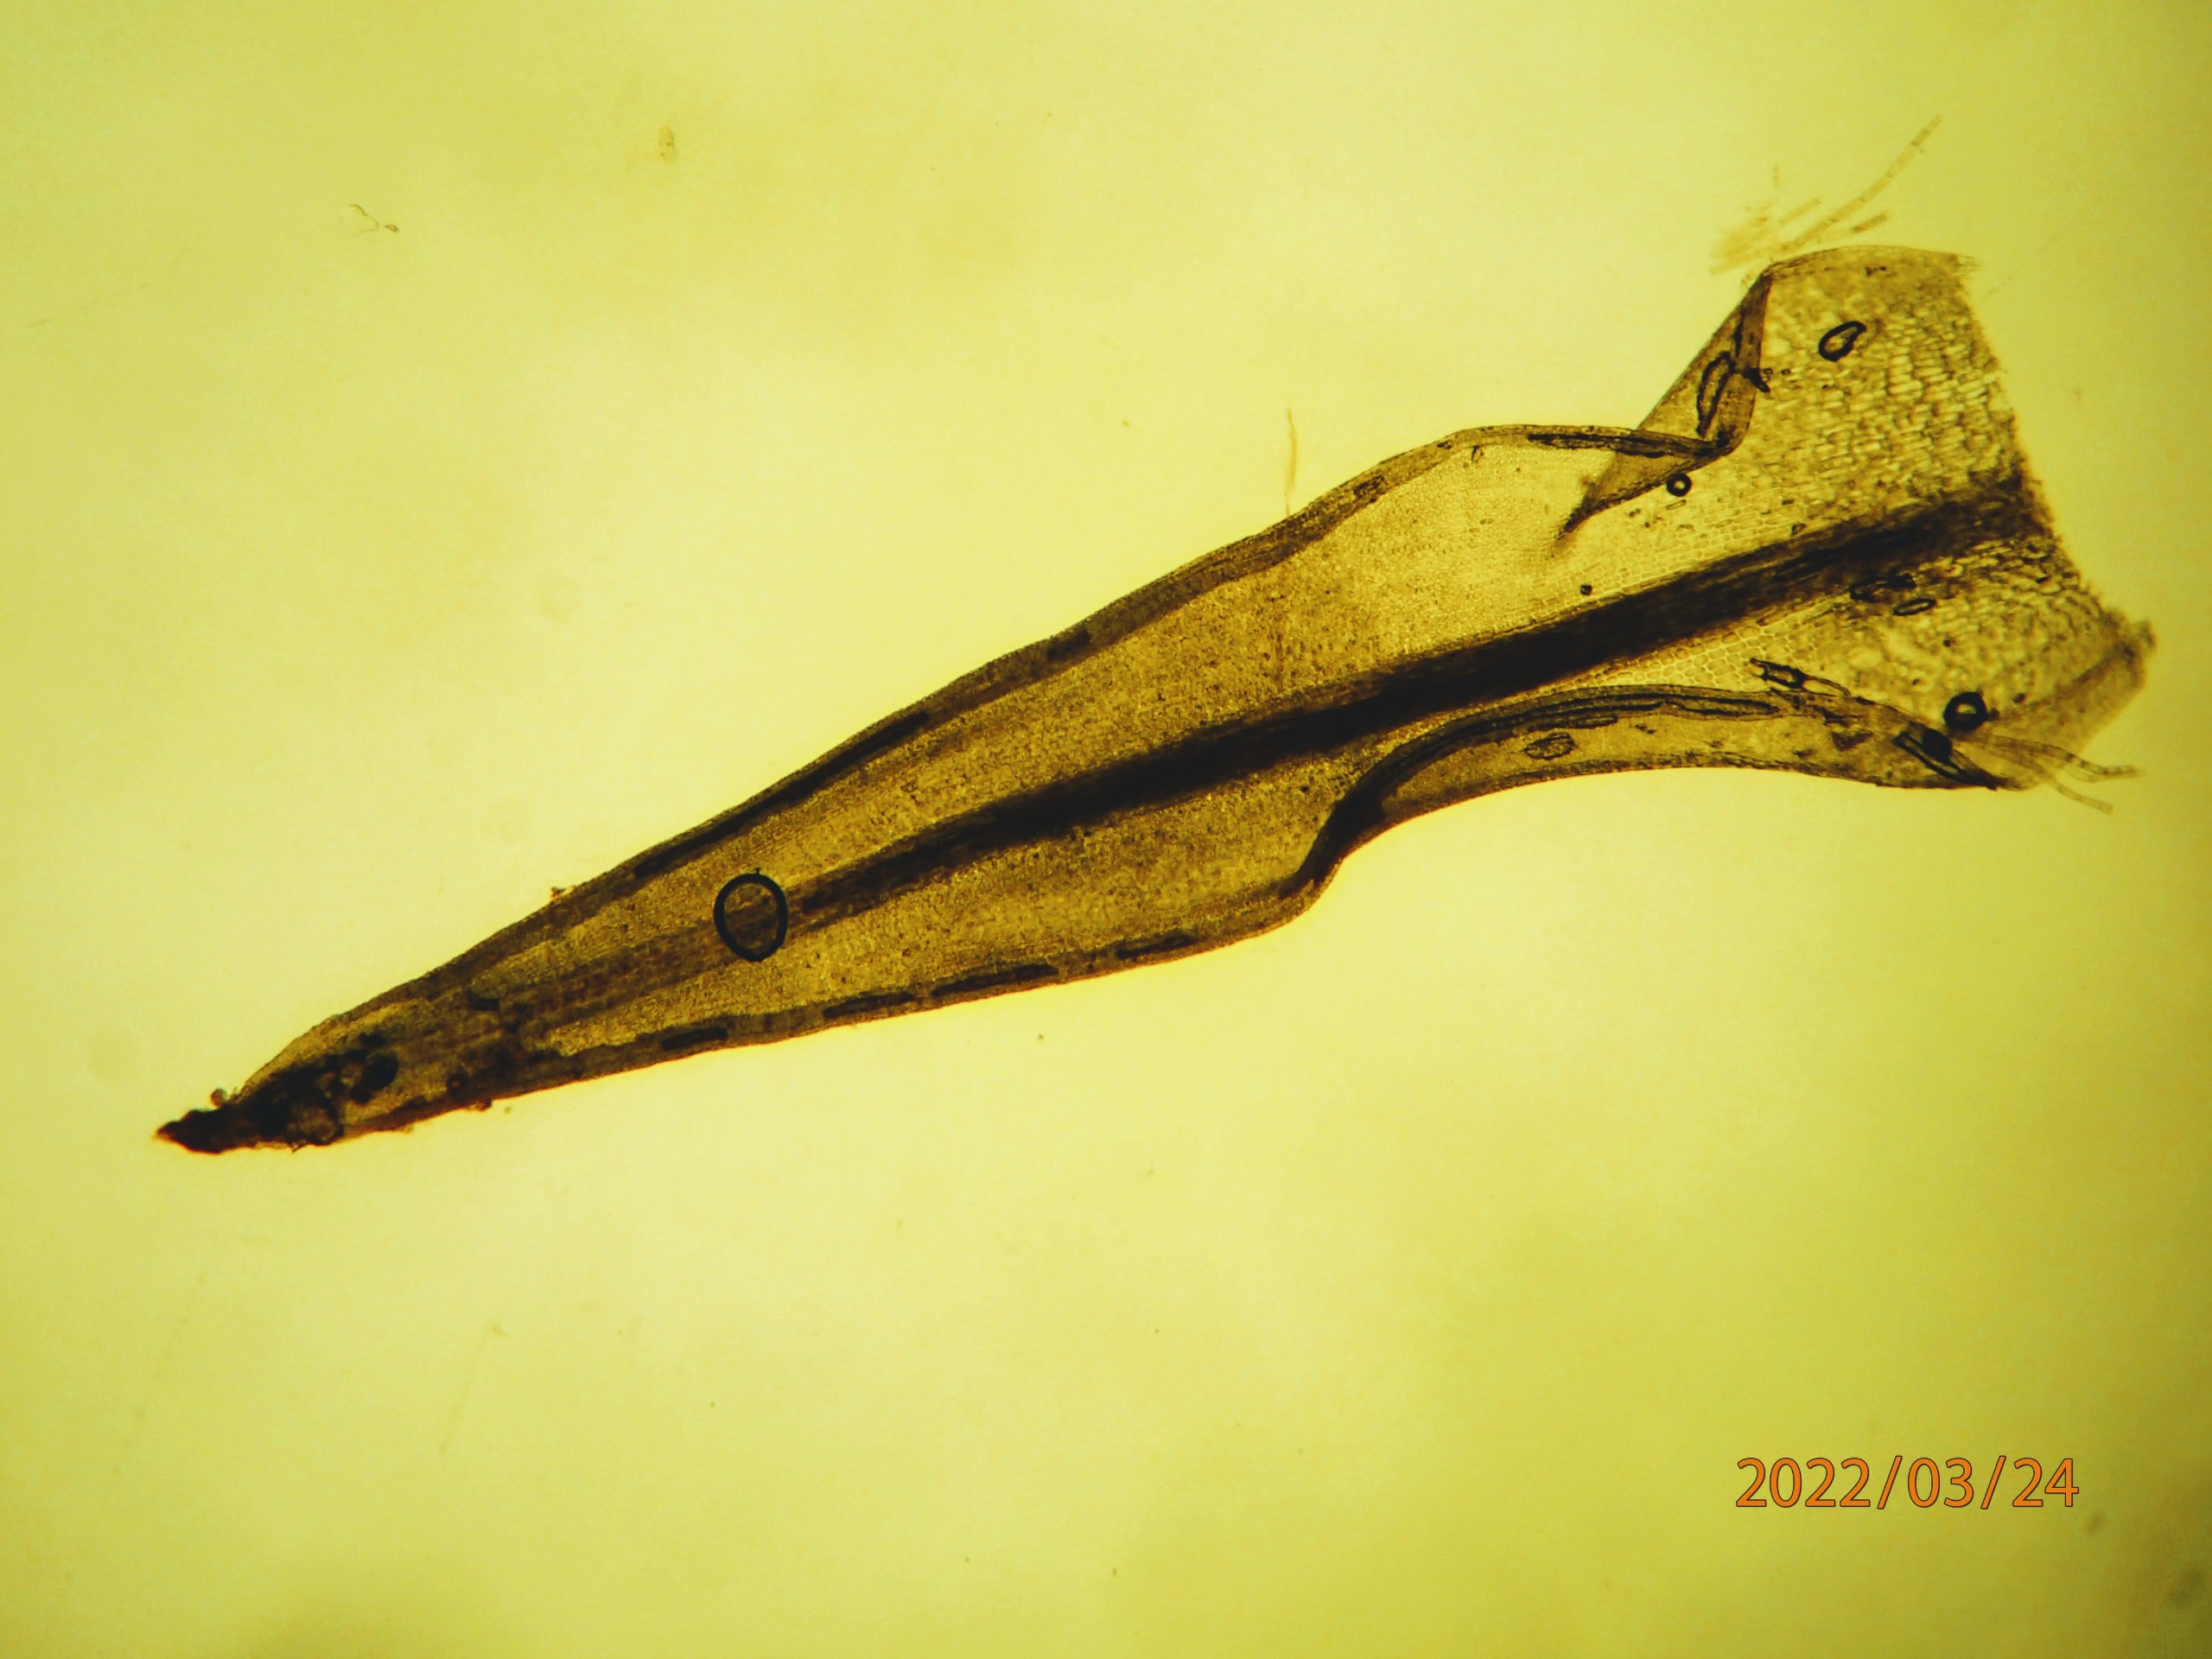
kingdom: Plantae
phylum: Bryophyta
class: Bryopsida
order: Pottiales
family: Pottiaceae
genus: Bryoerythrophyllum
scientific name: Bryoerythrophyllum recurvirostrum
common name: Rød gammelblad
